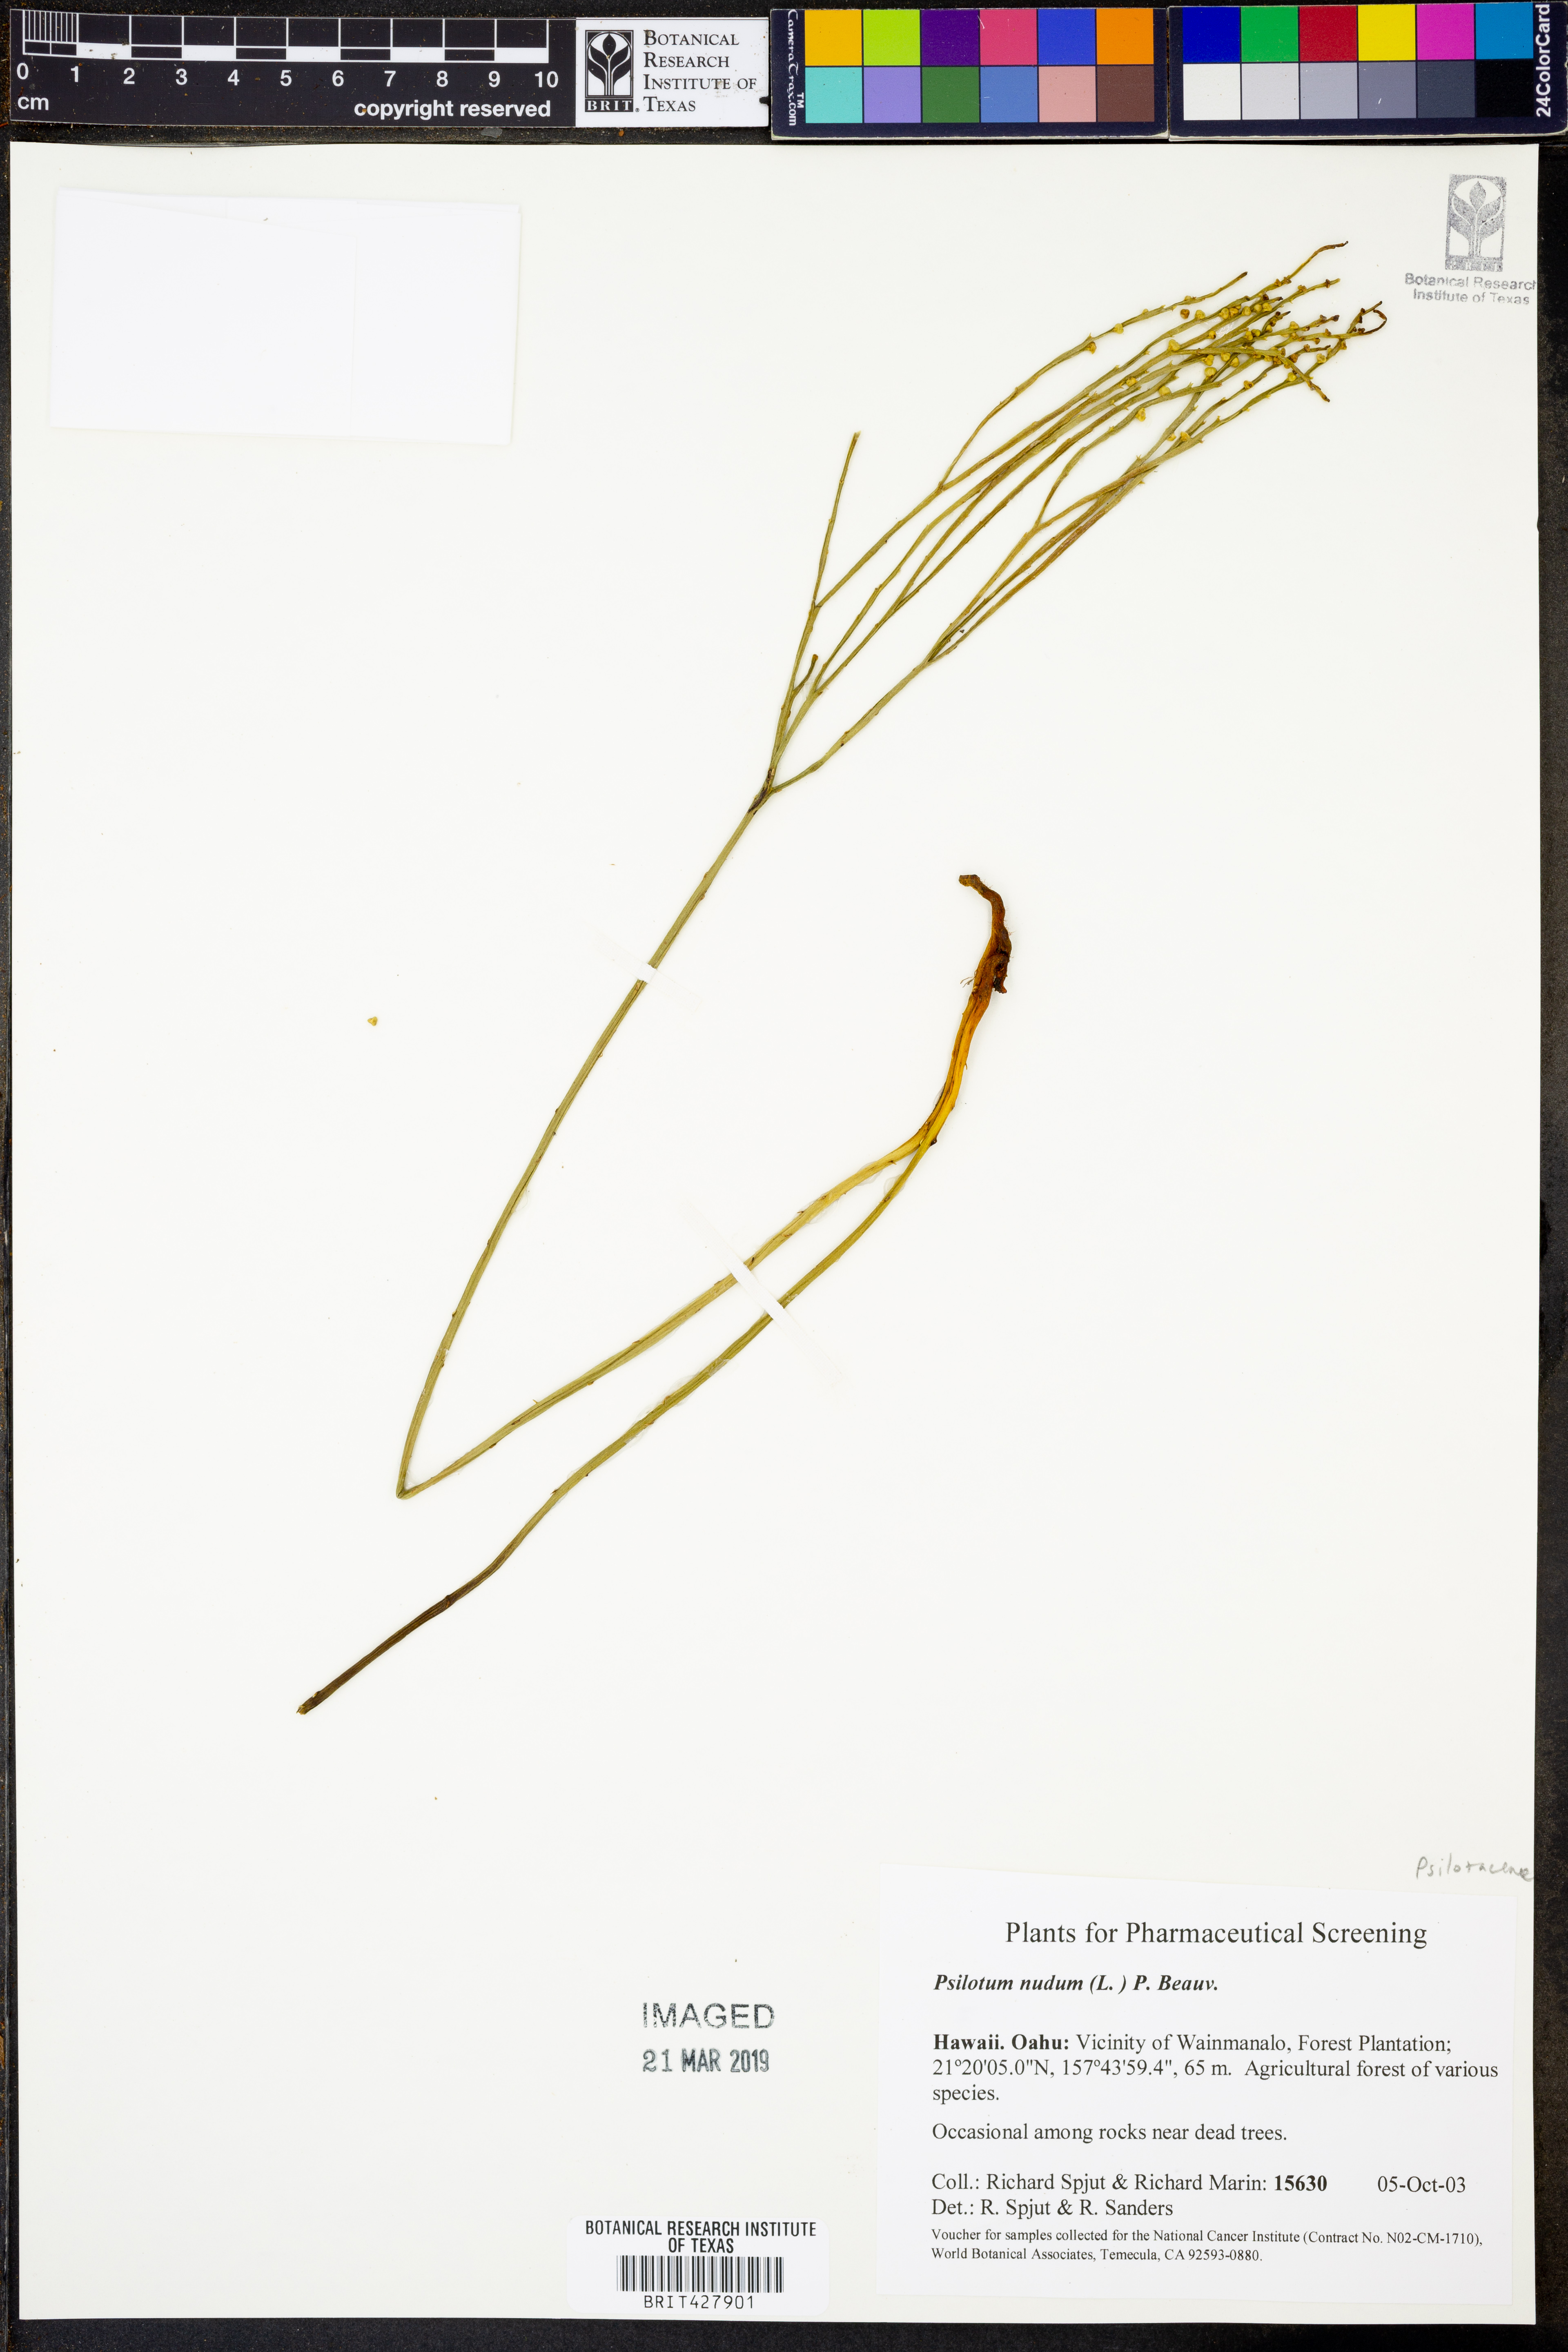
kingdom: Plantae
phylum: Tracheophyta
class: Polypodiopsida
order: Psilotales
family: Psilotaceae
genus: Psilotum
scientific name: Psilotum nudum
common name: Skeleton fork fern
